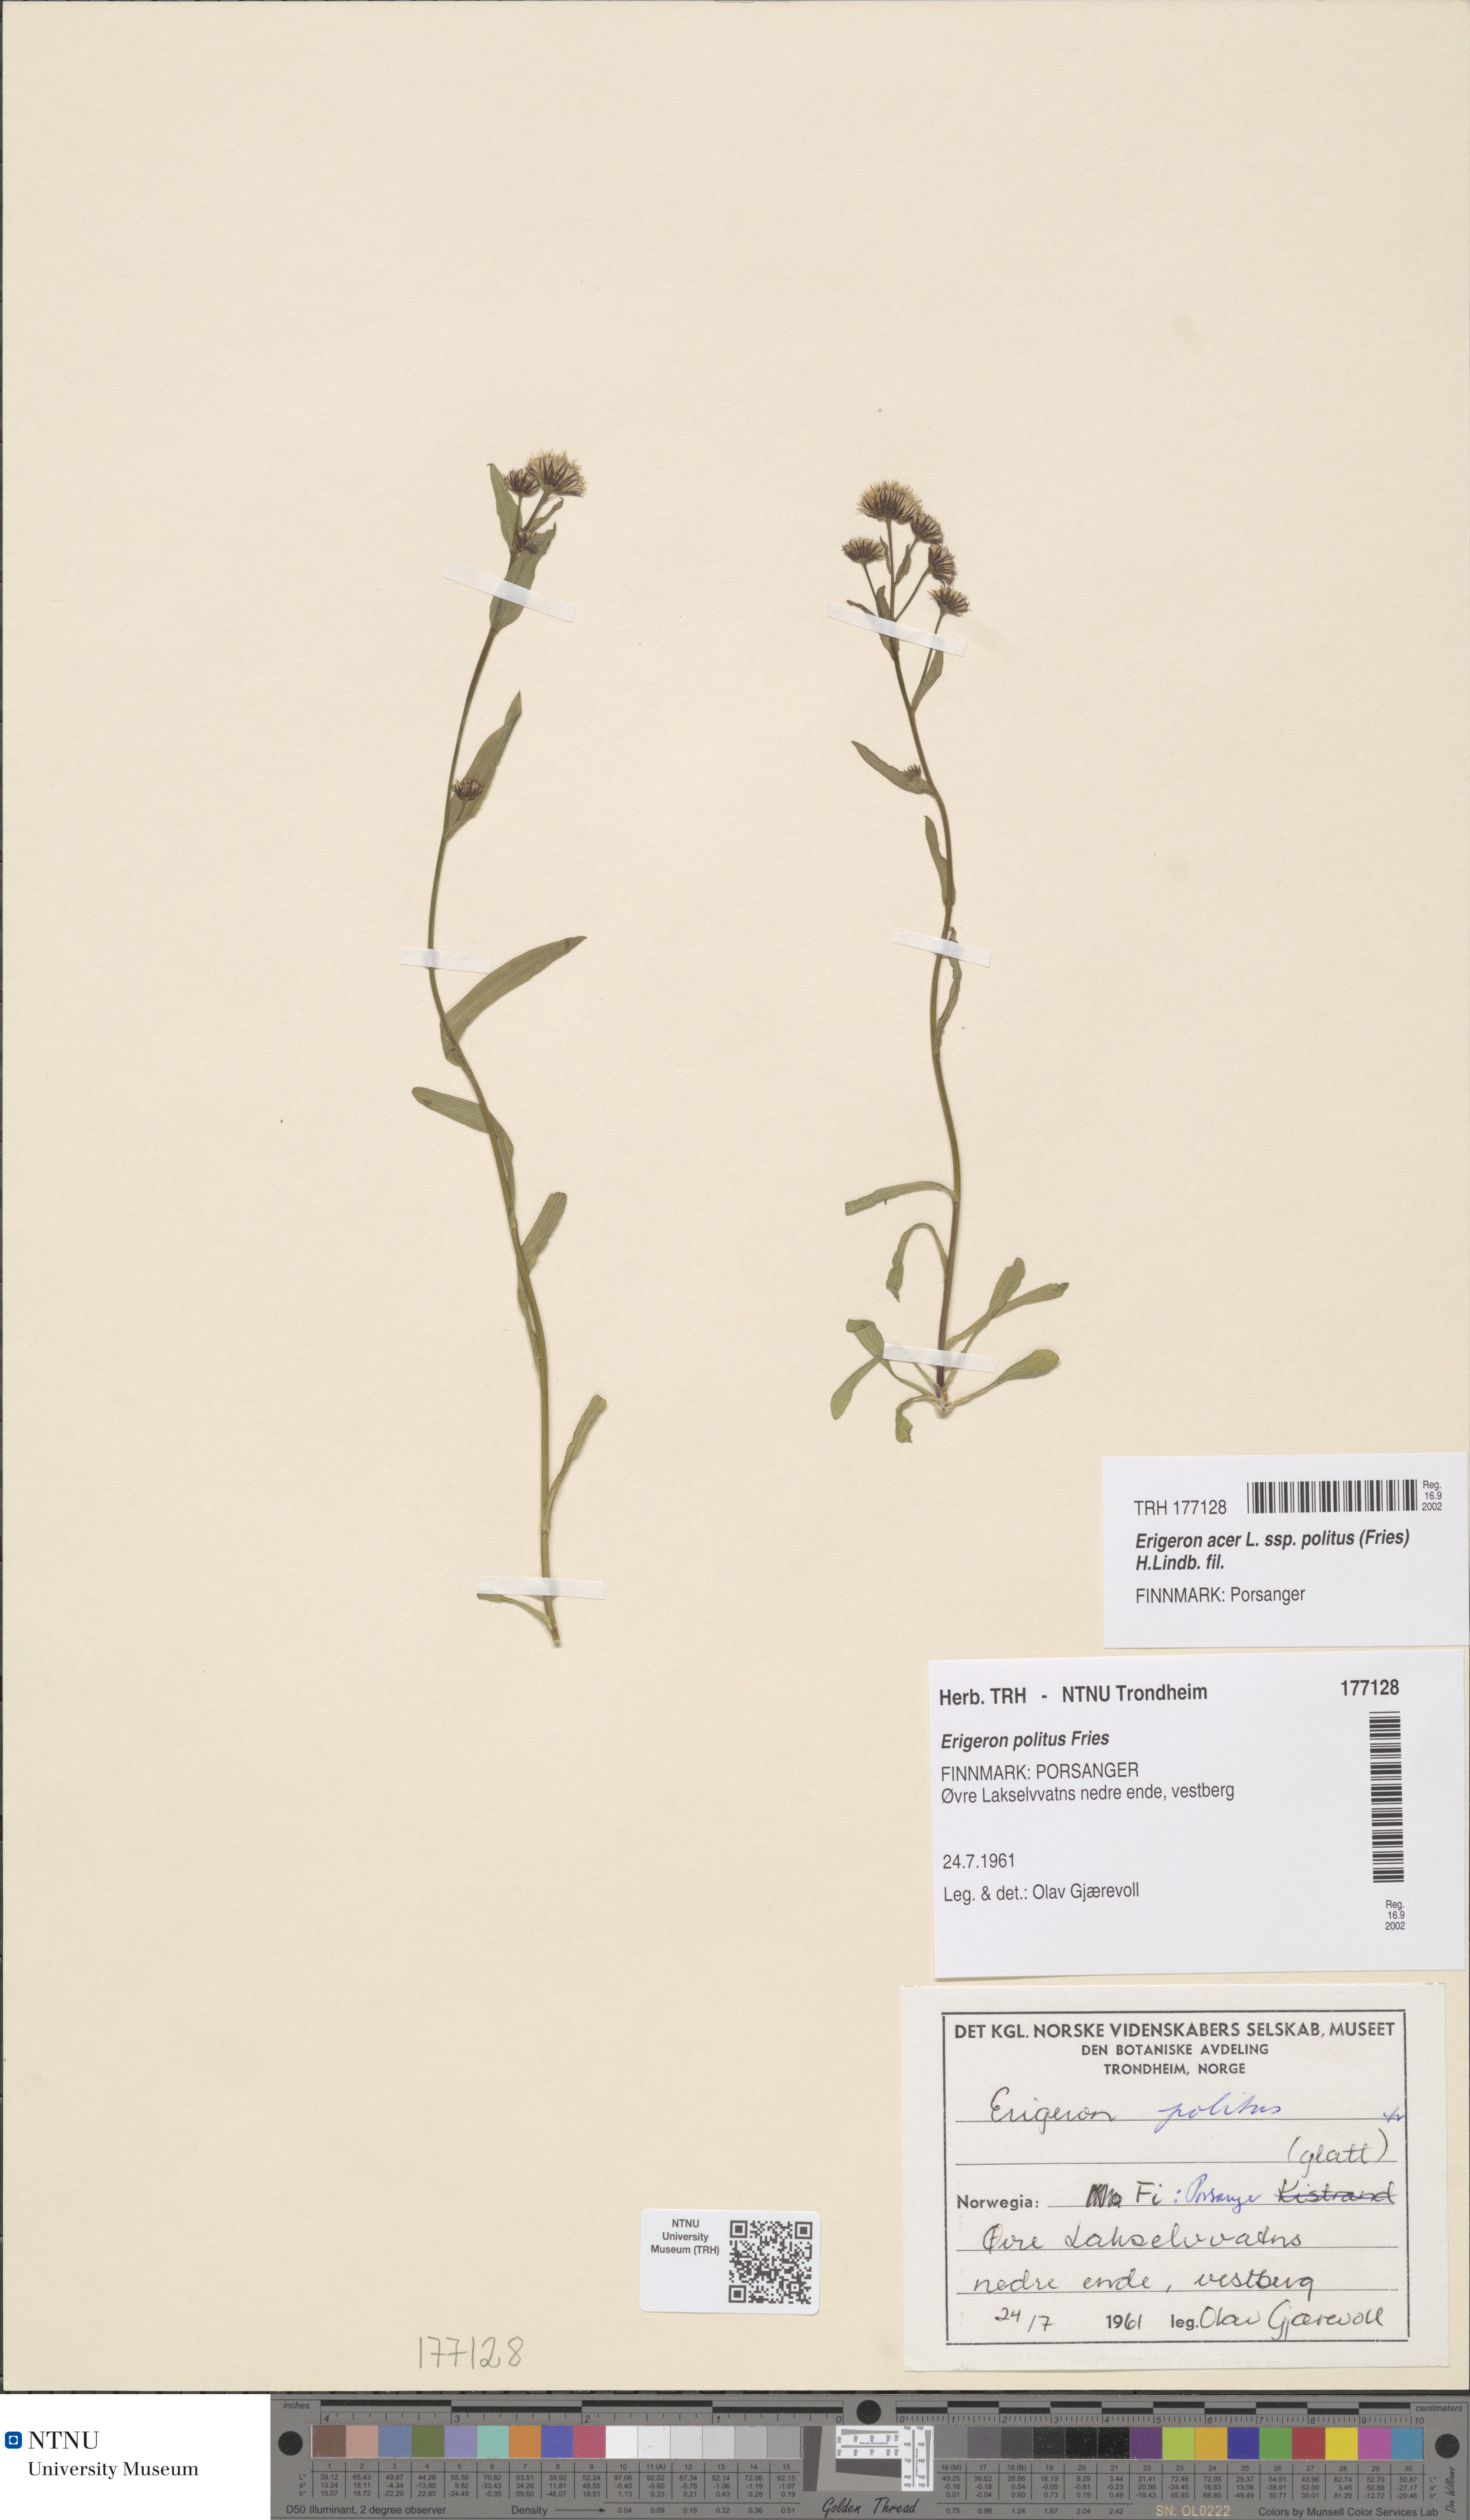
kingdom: Plantae
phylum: Tracheophyta
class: Magnoliopsida
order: Asterales
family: Asteraceae
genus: Erigeron
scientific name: Erigeron politus
